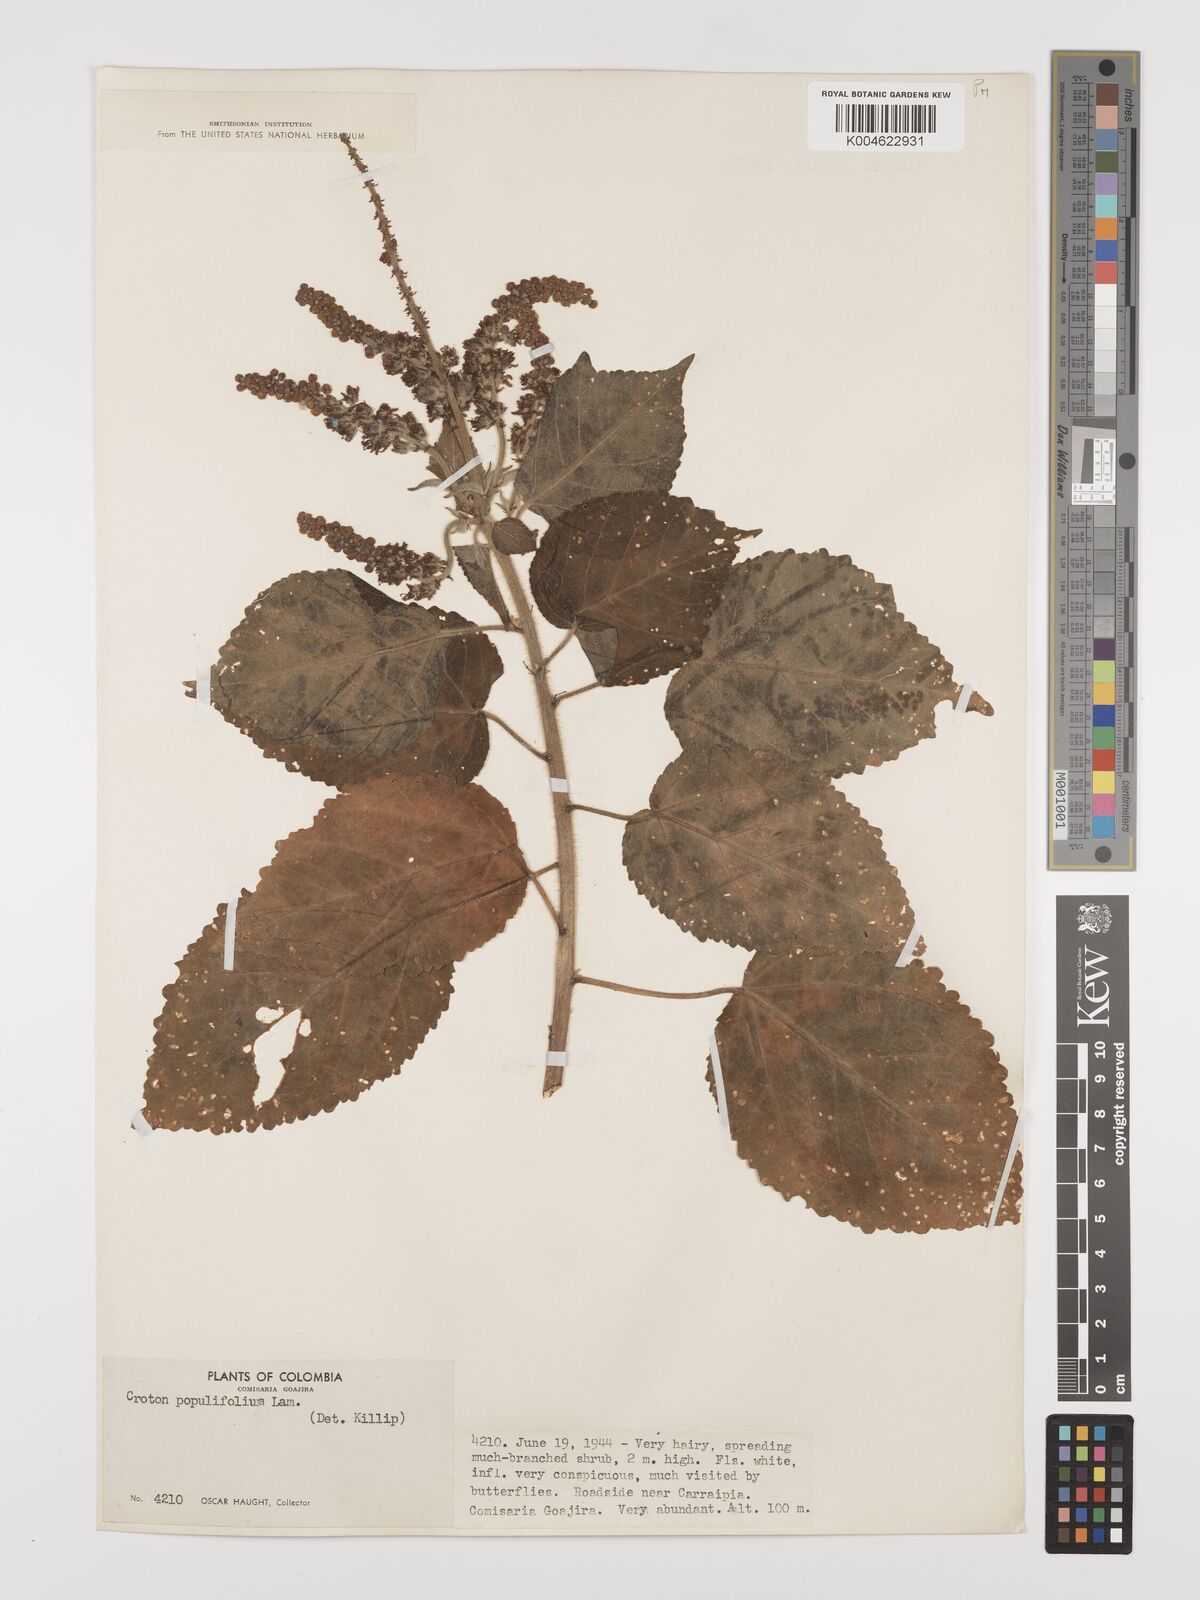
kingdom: Plantae
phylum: Tracheophyta
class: Magnoliopsida
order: Malpighiales
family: Euphorbiaceae
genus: Croton
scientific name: Croton
